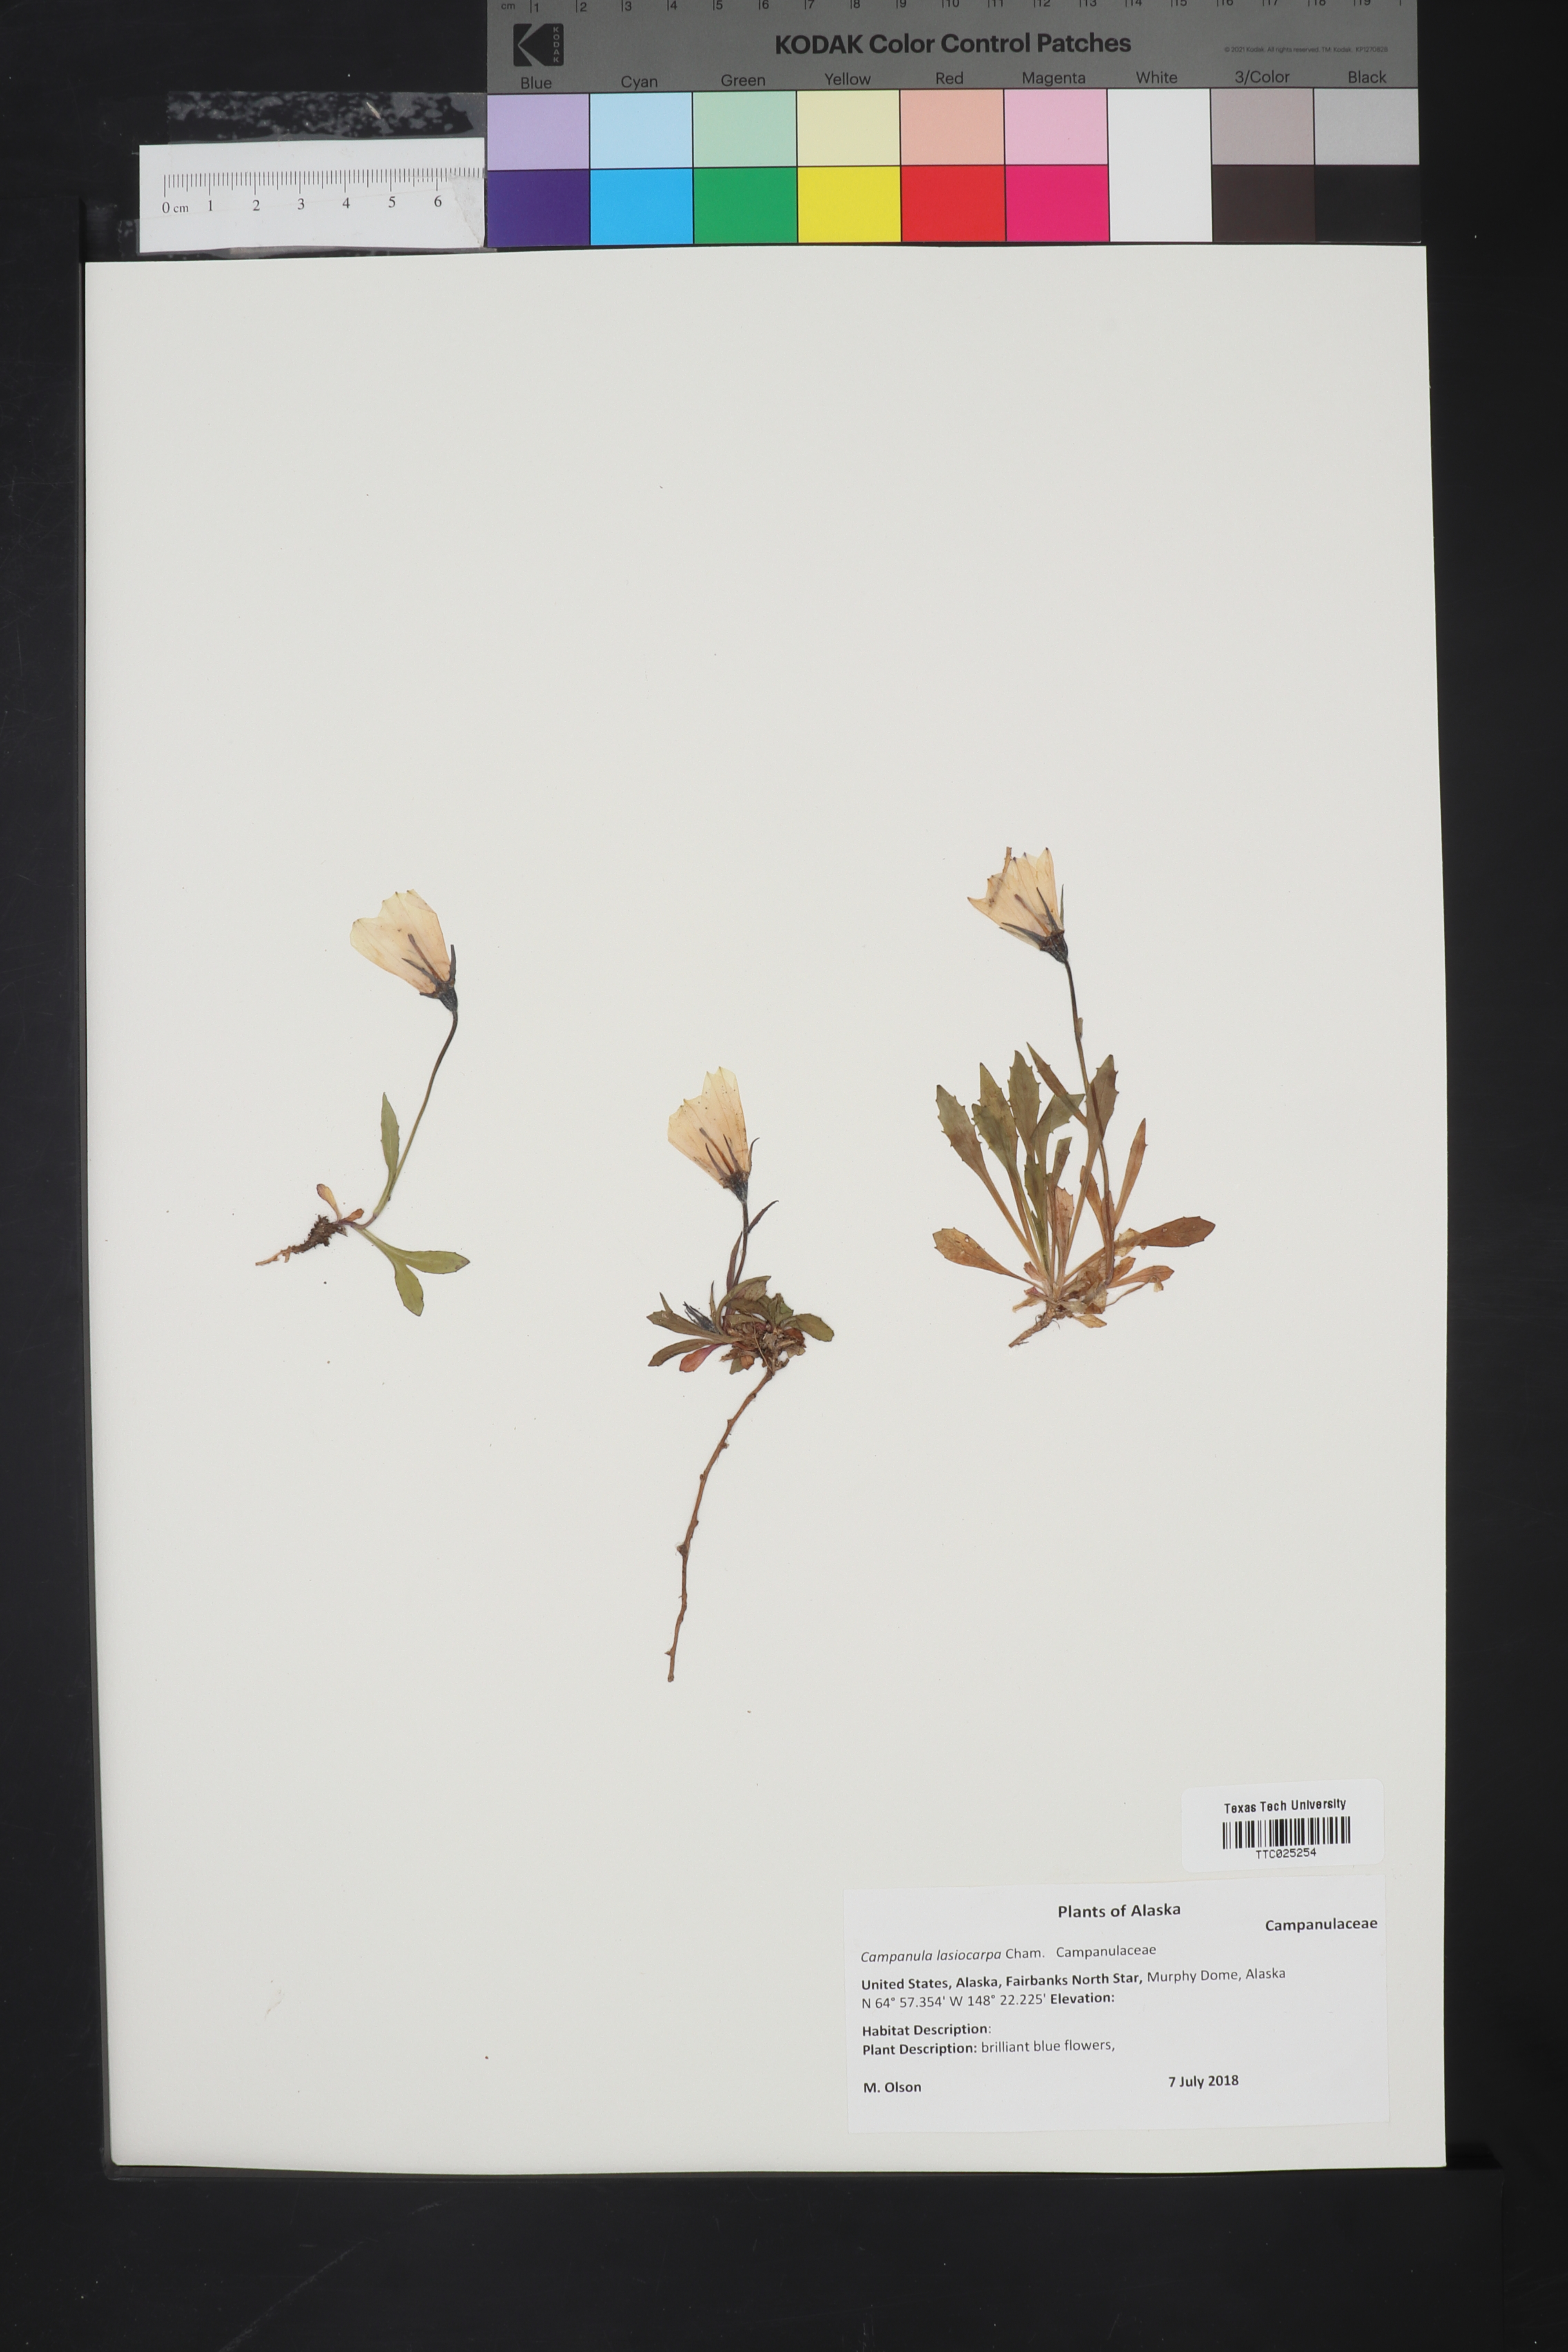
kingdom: Plantae
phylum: Tracheophyta
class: Magnoliopsida
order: Asterales
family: Campanulaceae
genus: Campanula
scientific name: Campanula lasiocarpa
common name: Mountain harebell
